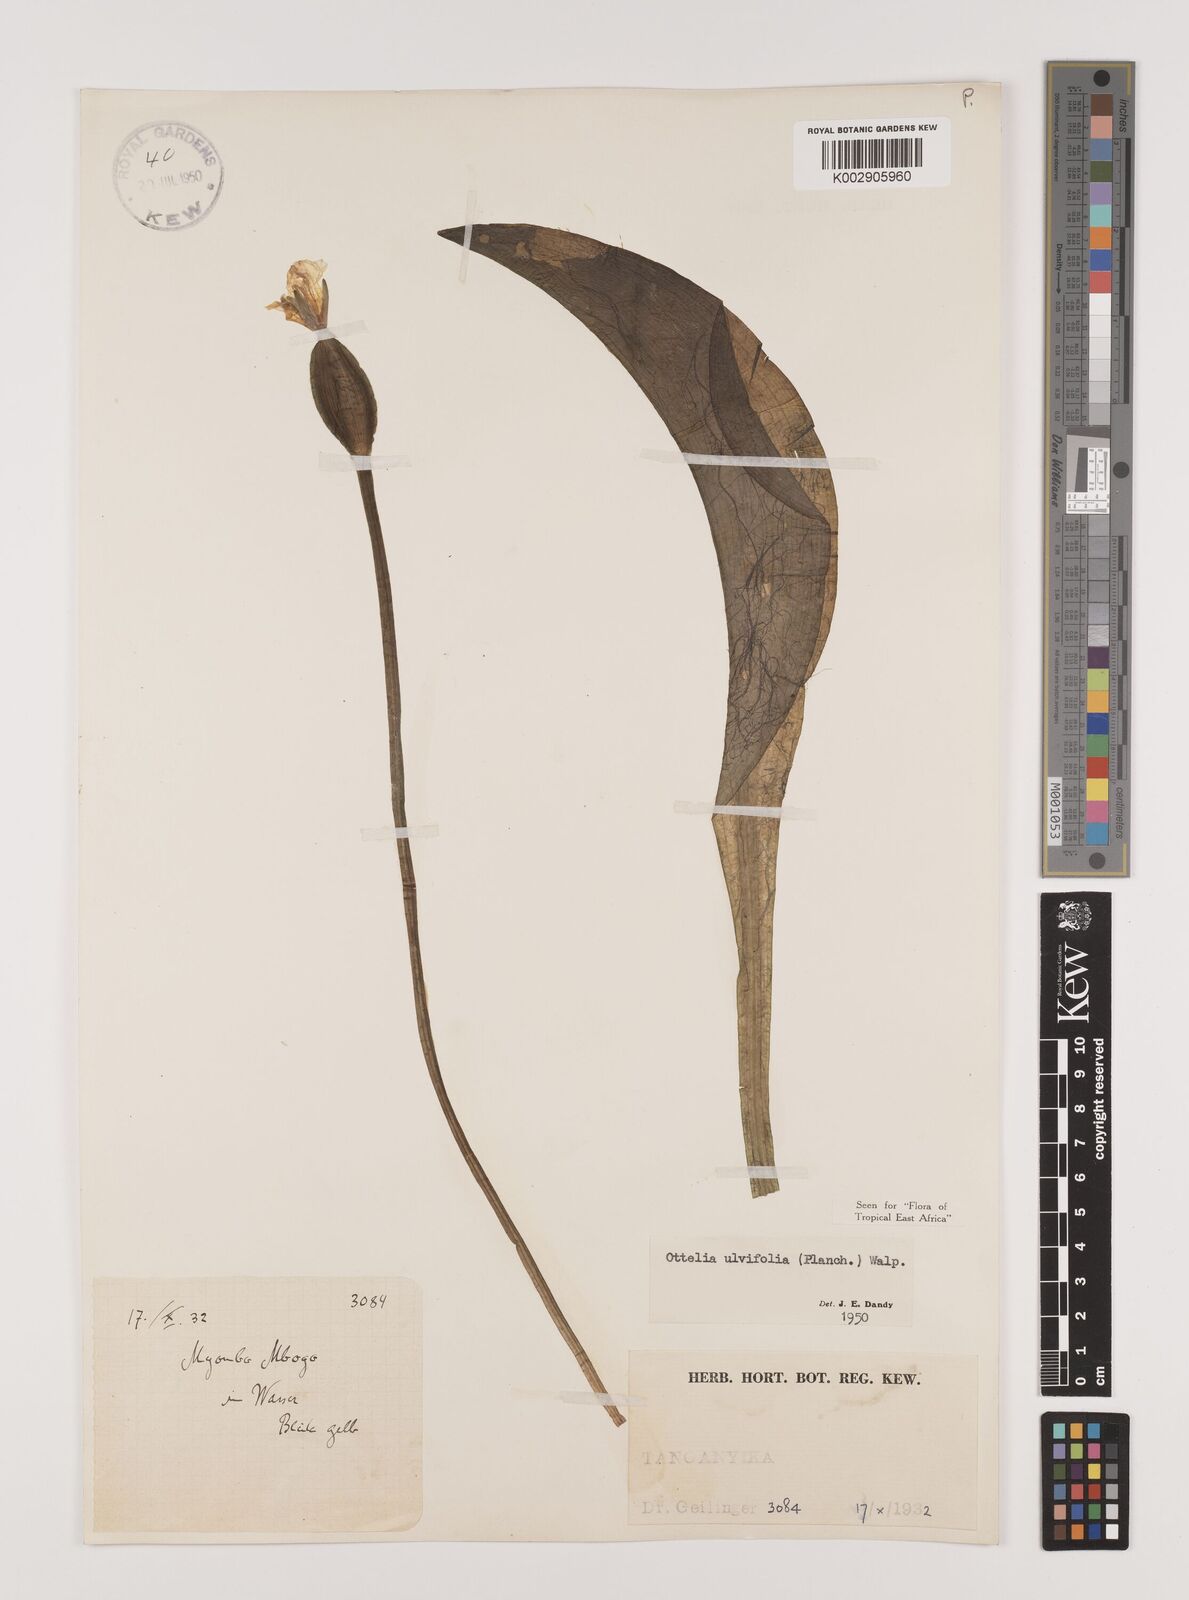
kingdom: Plantae
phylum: Tracheophyta
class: Liliopsida
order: Alismatales
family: Hydrocharitaceae
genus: Ottelia
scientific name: Ottelia ulvifolia
